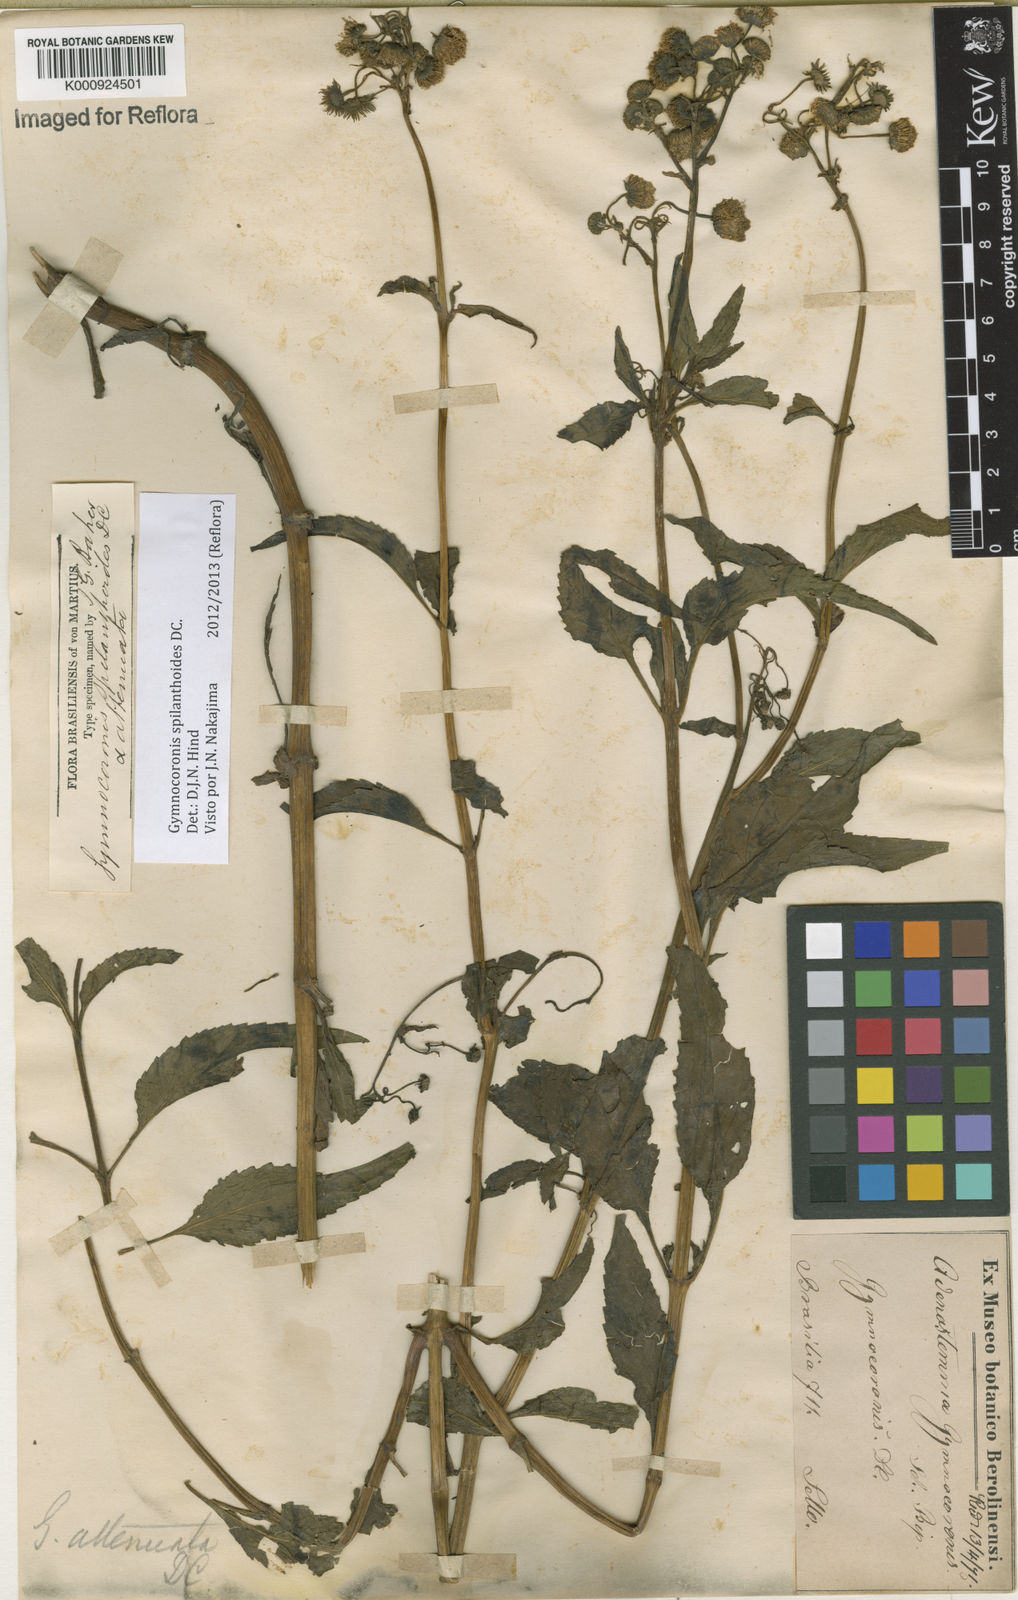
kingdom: Plantae
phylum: Tracheophyta
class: Magnoliopsida
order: Asterales
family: Asteraceae
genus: Gymnocoronis
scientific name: Gymnocoronis spilanthoides
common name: Senegal teaplant
